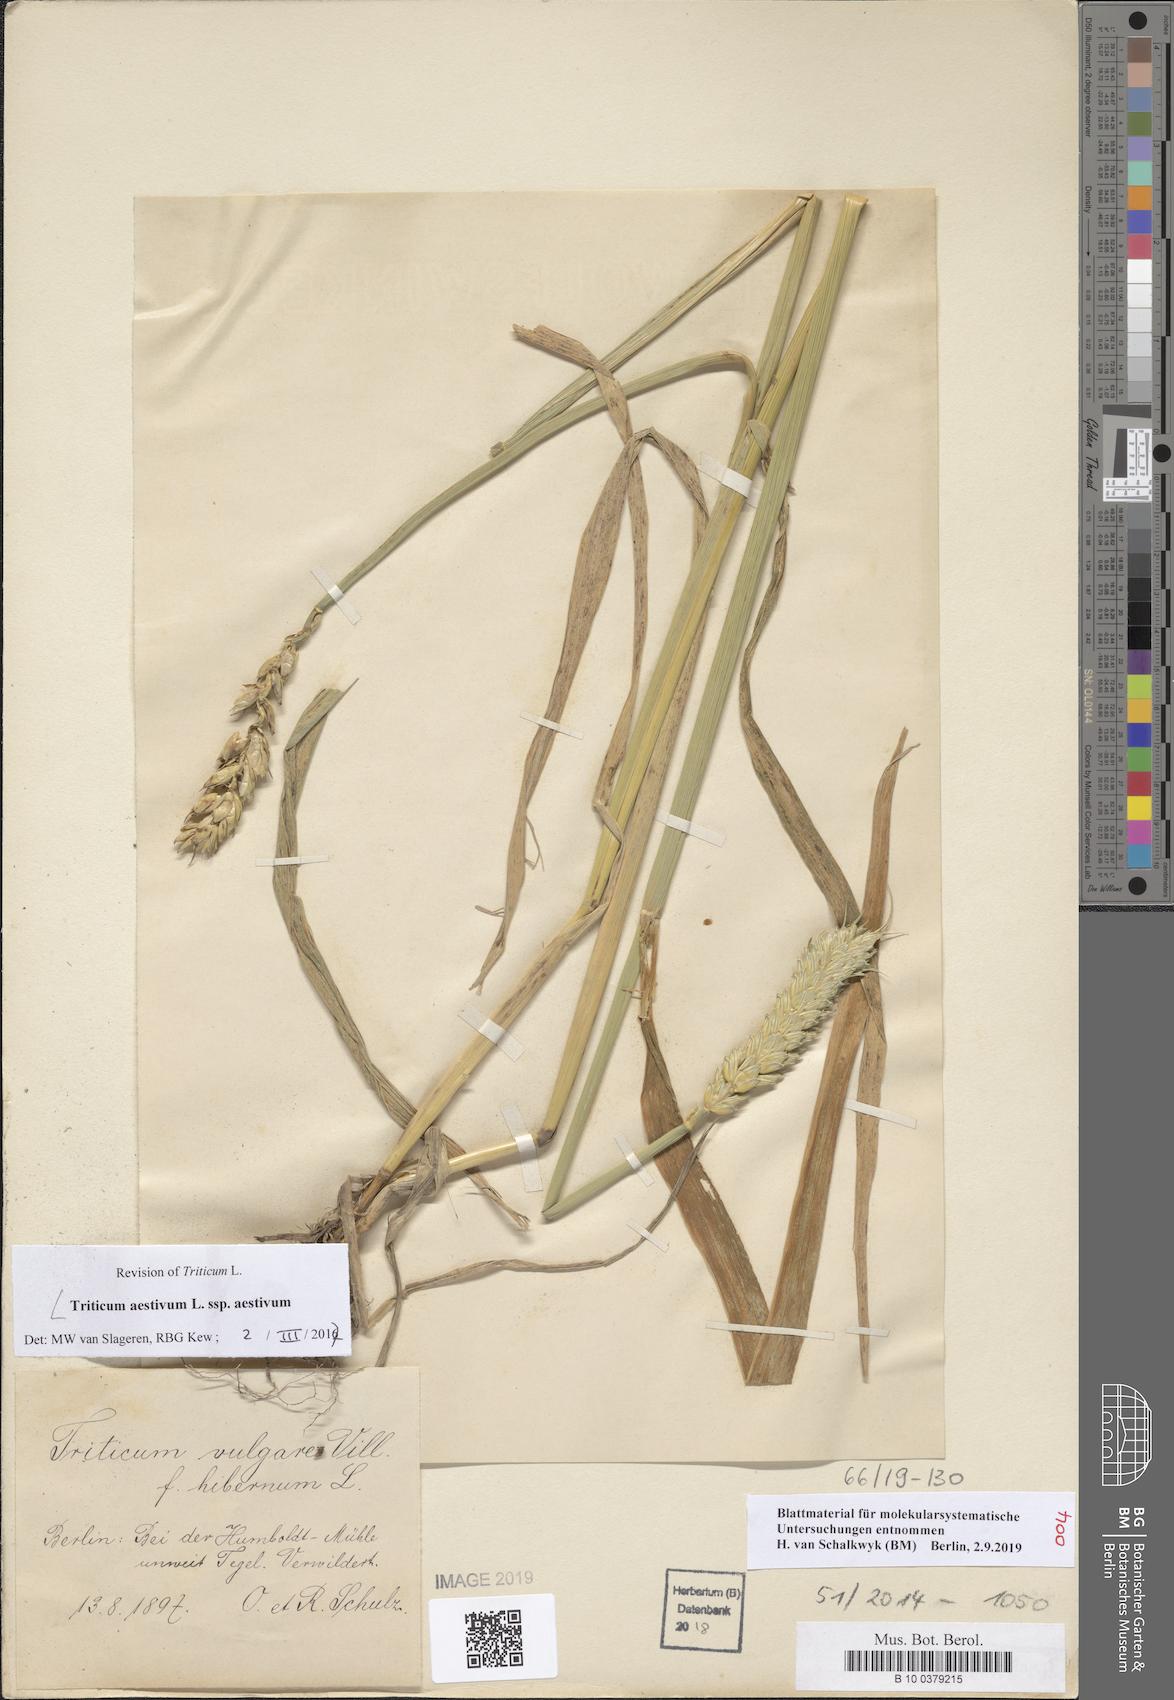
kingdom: Plantae
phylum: Tracheophyta
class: Liliopsida
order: Poales
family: Poaceae
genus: Triticum
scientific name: Triticum aestivum
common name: Common wheat
